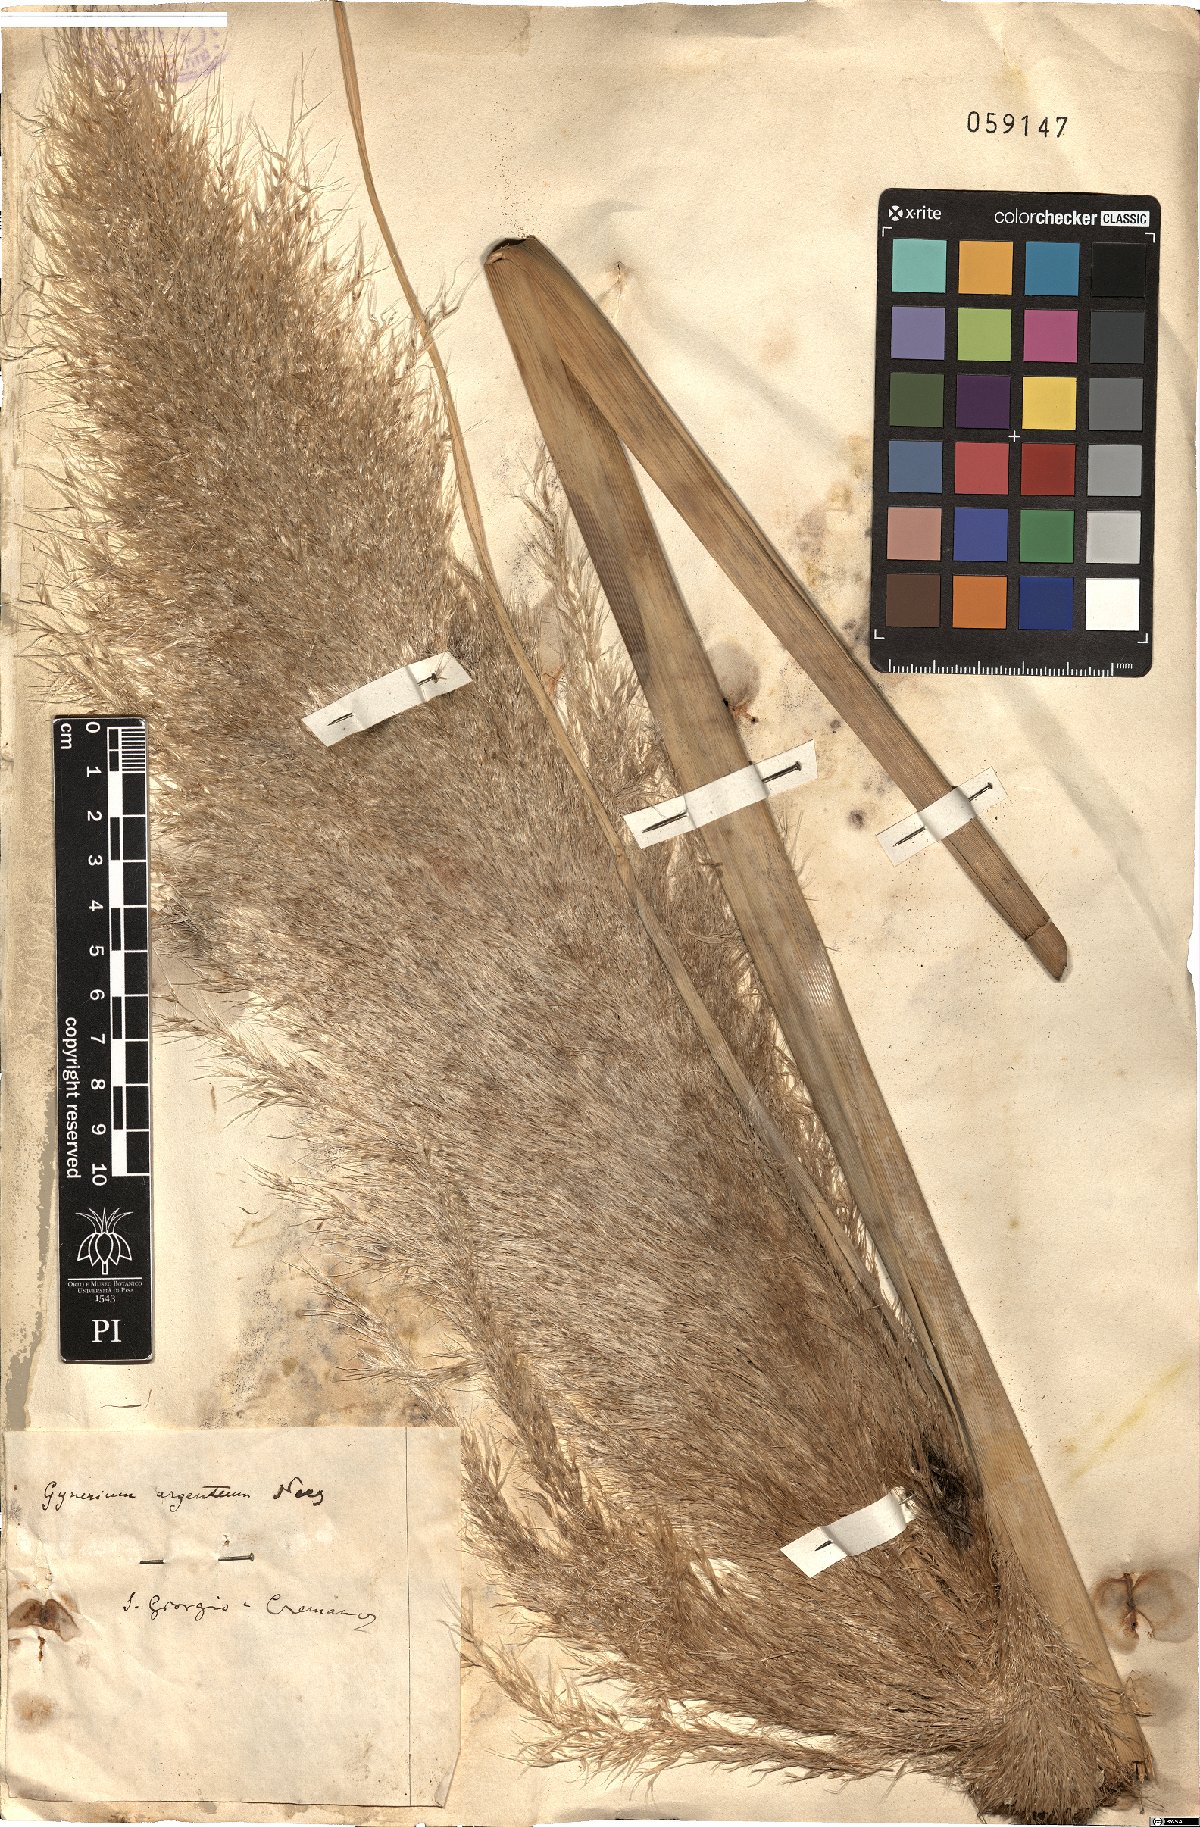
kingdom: Plantae
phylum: Tracheophyta
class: Liliopsida
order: Poales
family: Poaceae
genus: Cortaderia
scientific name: Cortaderia selloana
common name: Uruguayan pampas grass
